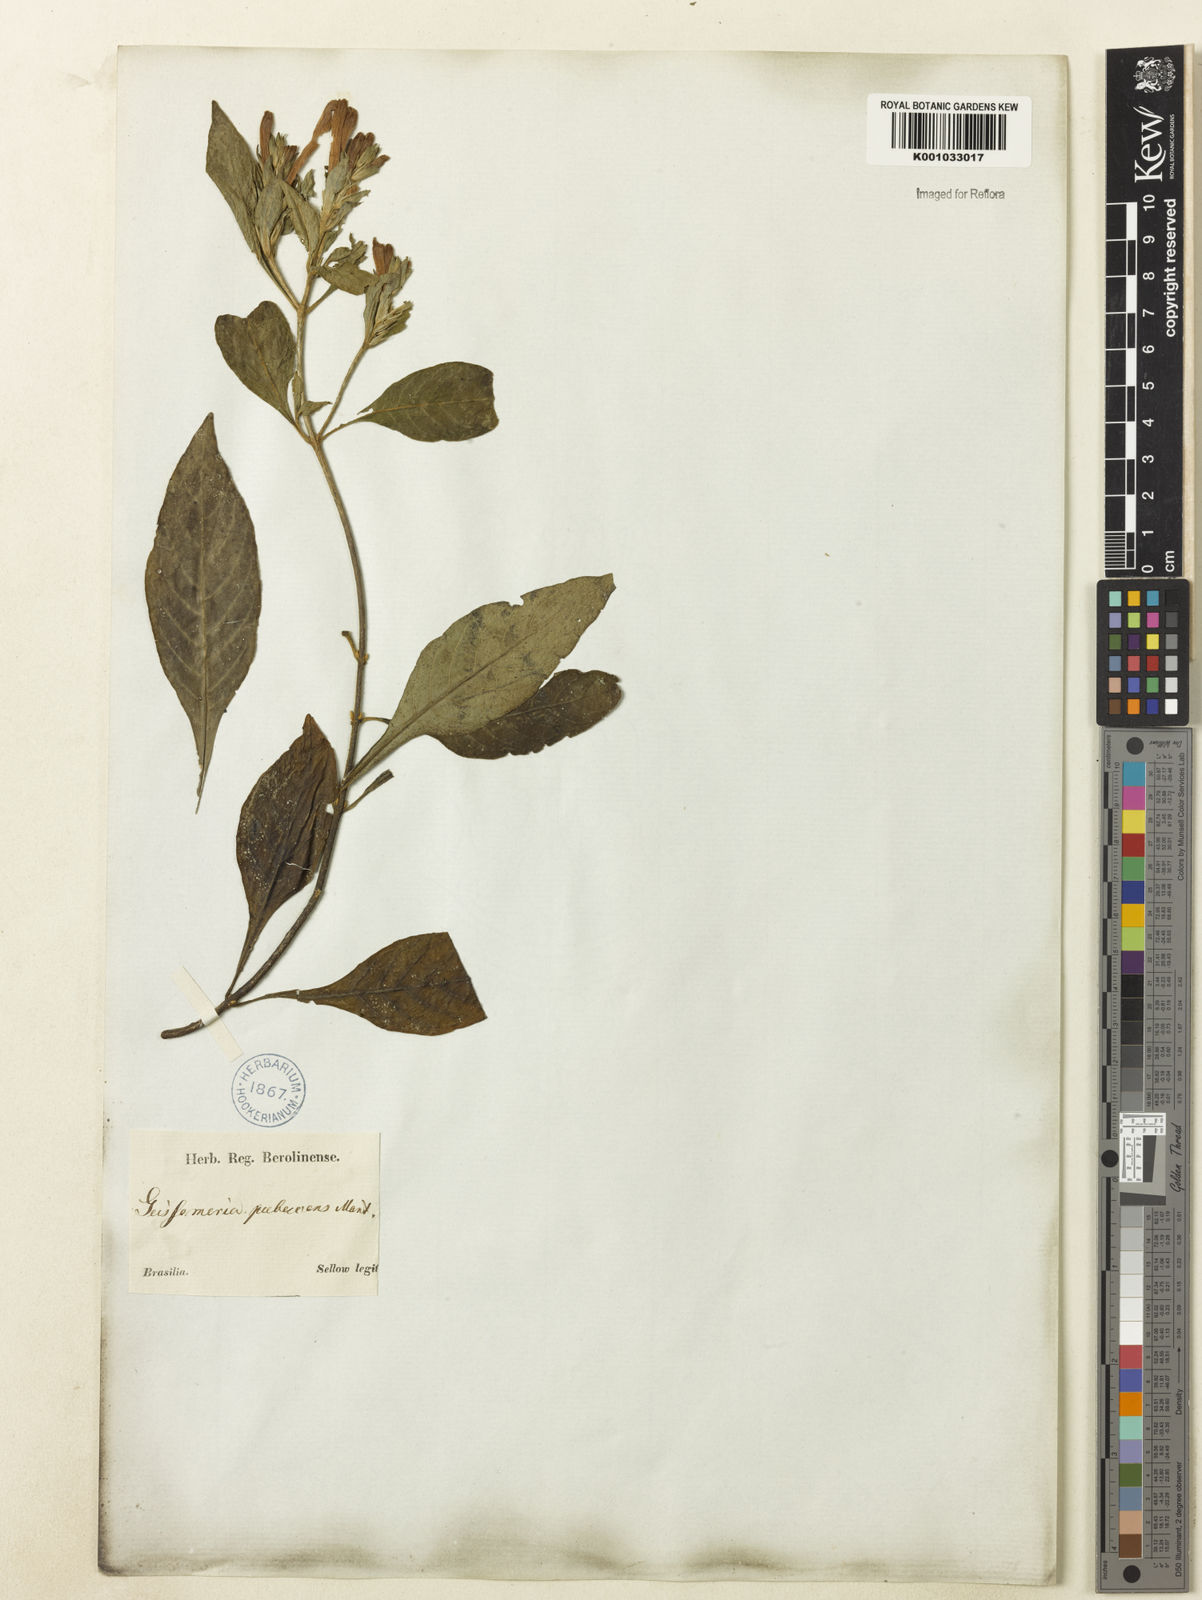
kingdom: Plantae
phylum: Tracheophyta
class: Magnoliopsida
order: Lamiales
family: Acanthaceae
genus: Aphelandra
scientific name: Aphelandra longiflora
